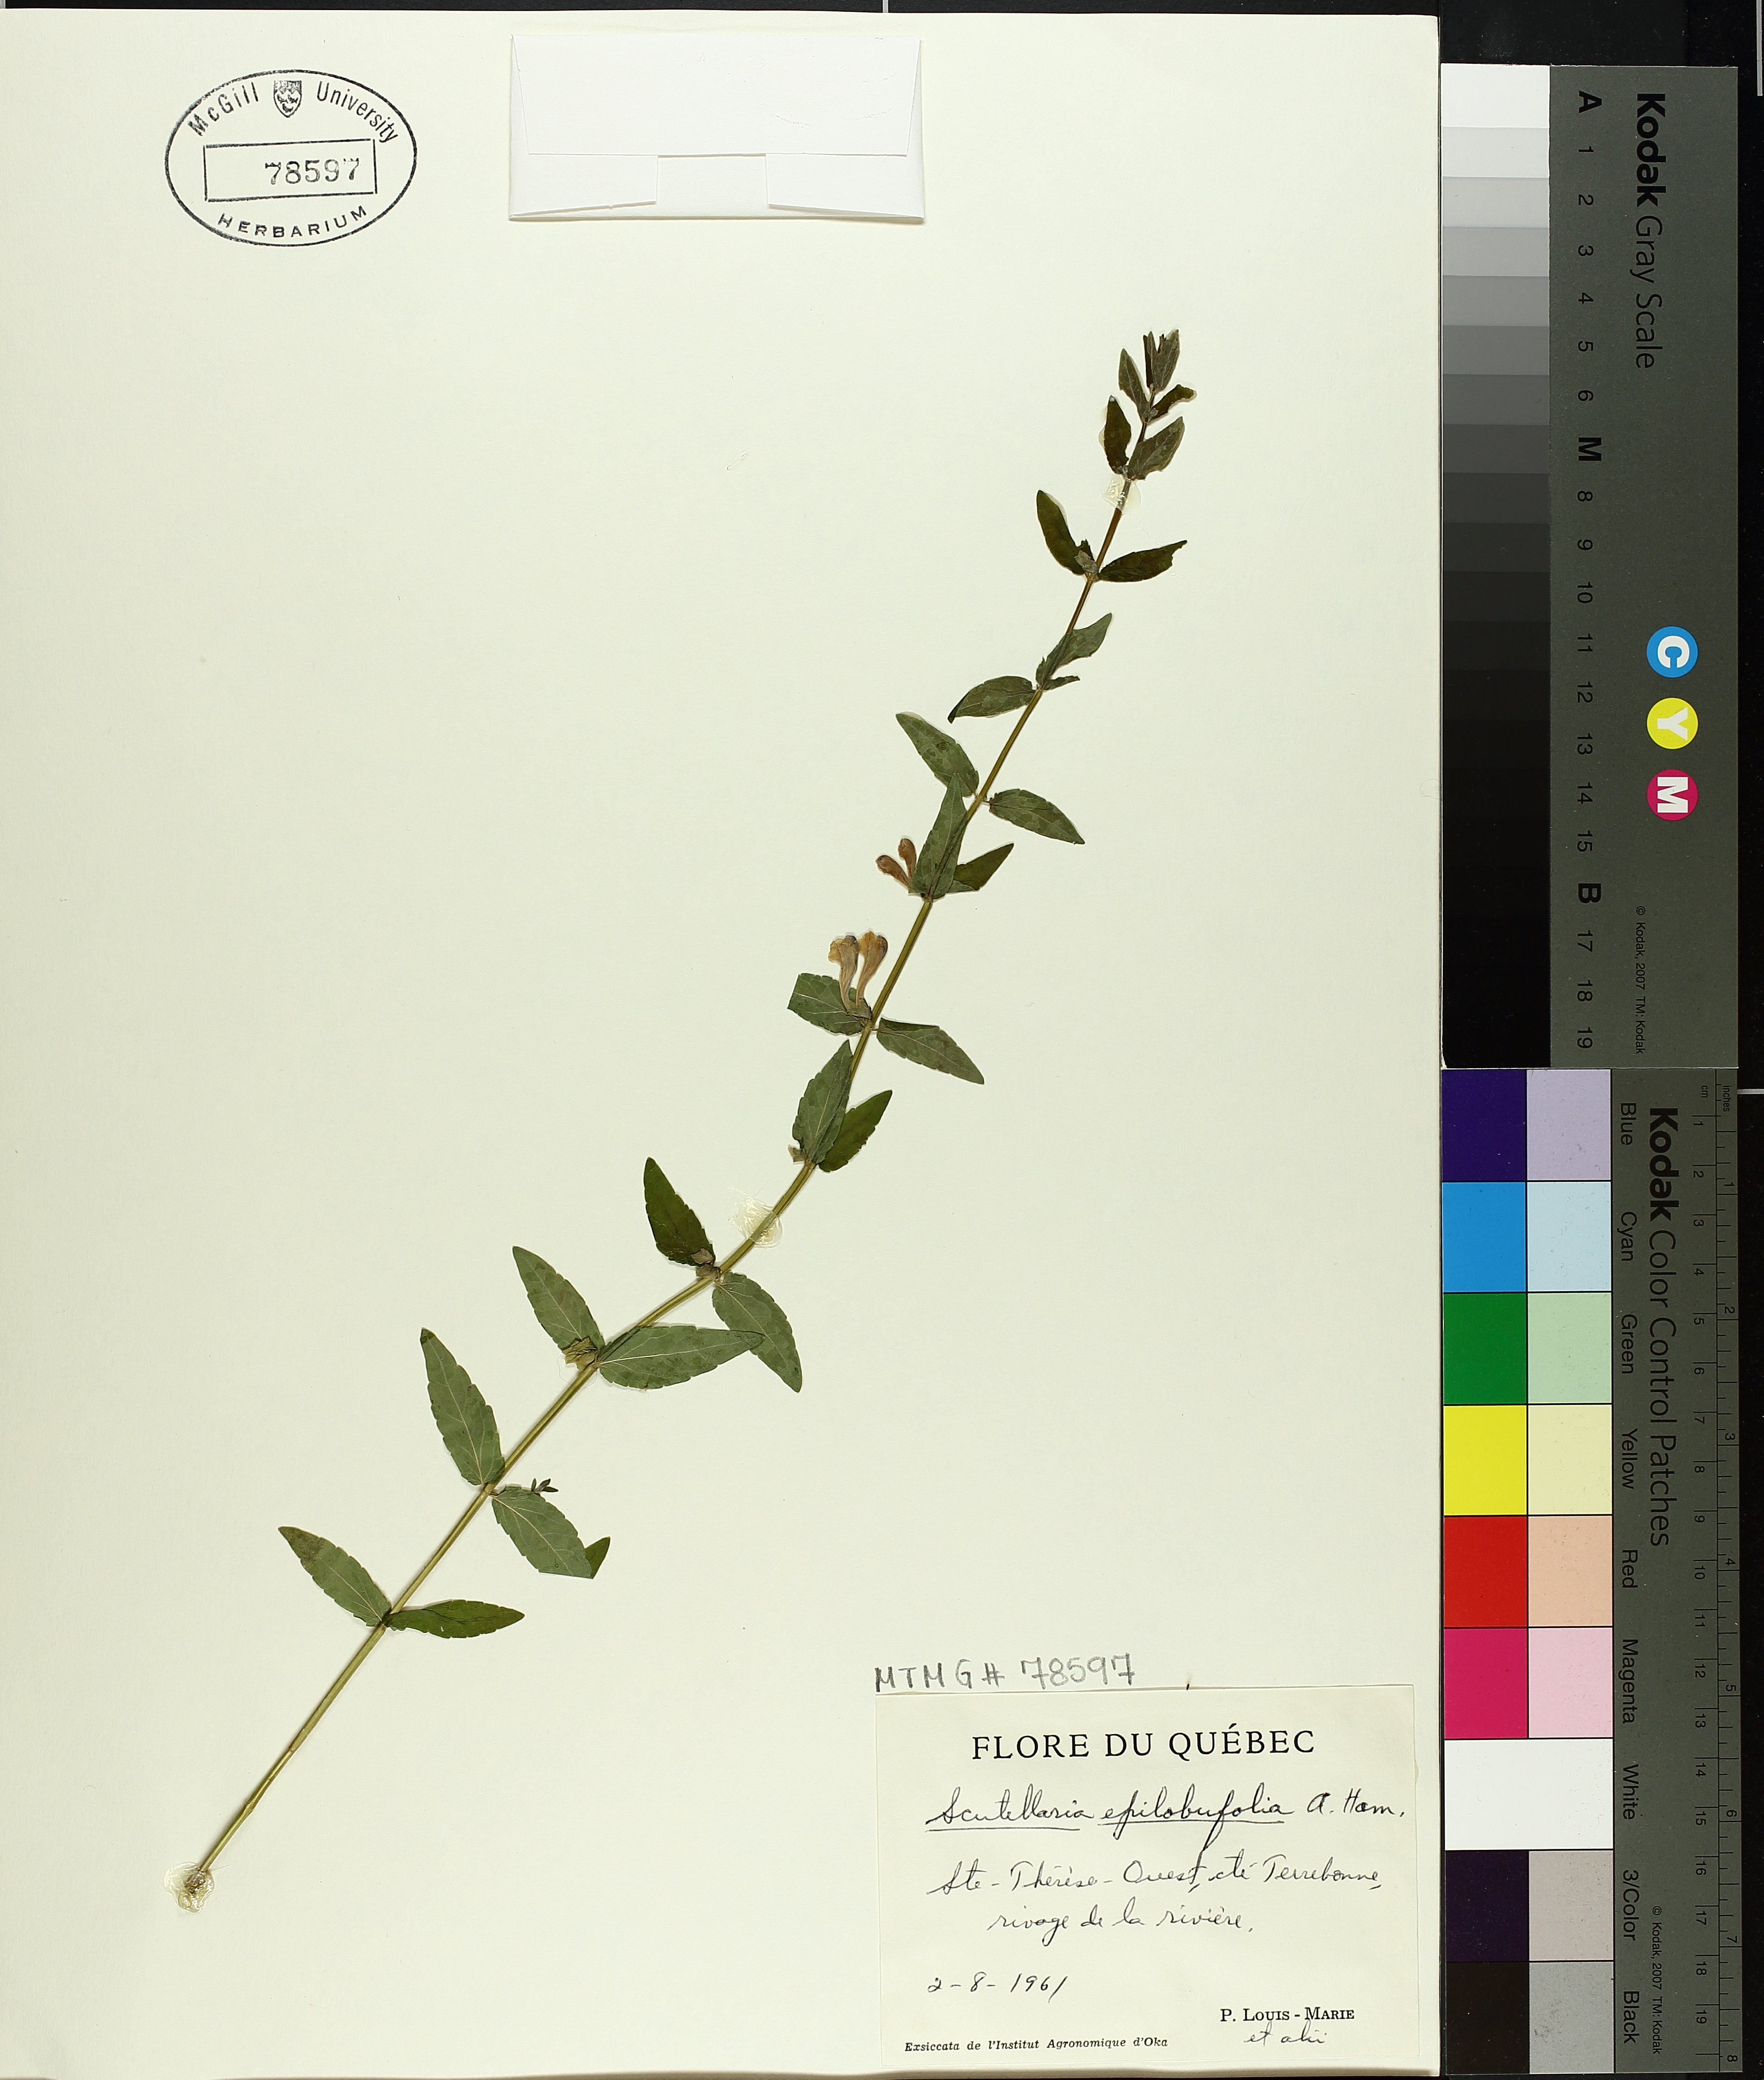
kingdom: Plantae
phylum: Tracheophyta
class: Magnoliopsida
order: Lamiales
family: Lamiaceae
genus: Scutellaria
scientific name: Scutellaria galericulata
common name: Skullcap
